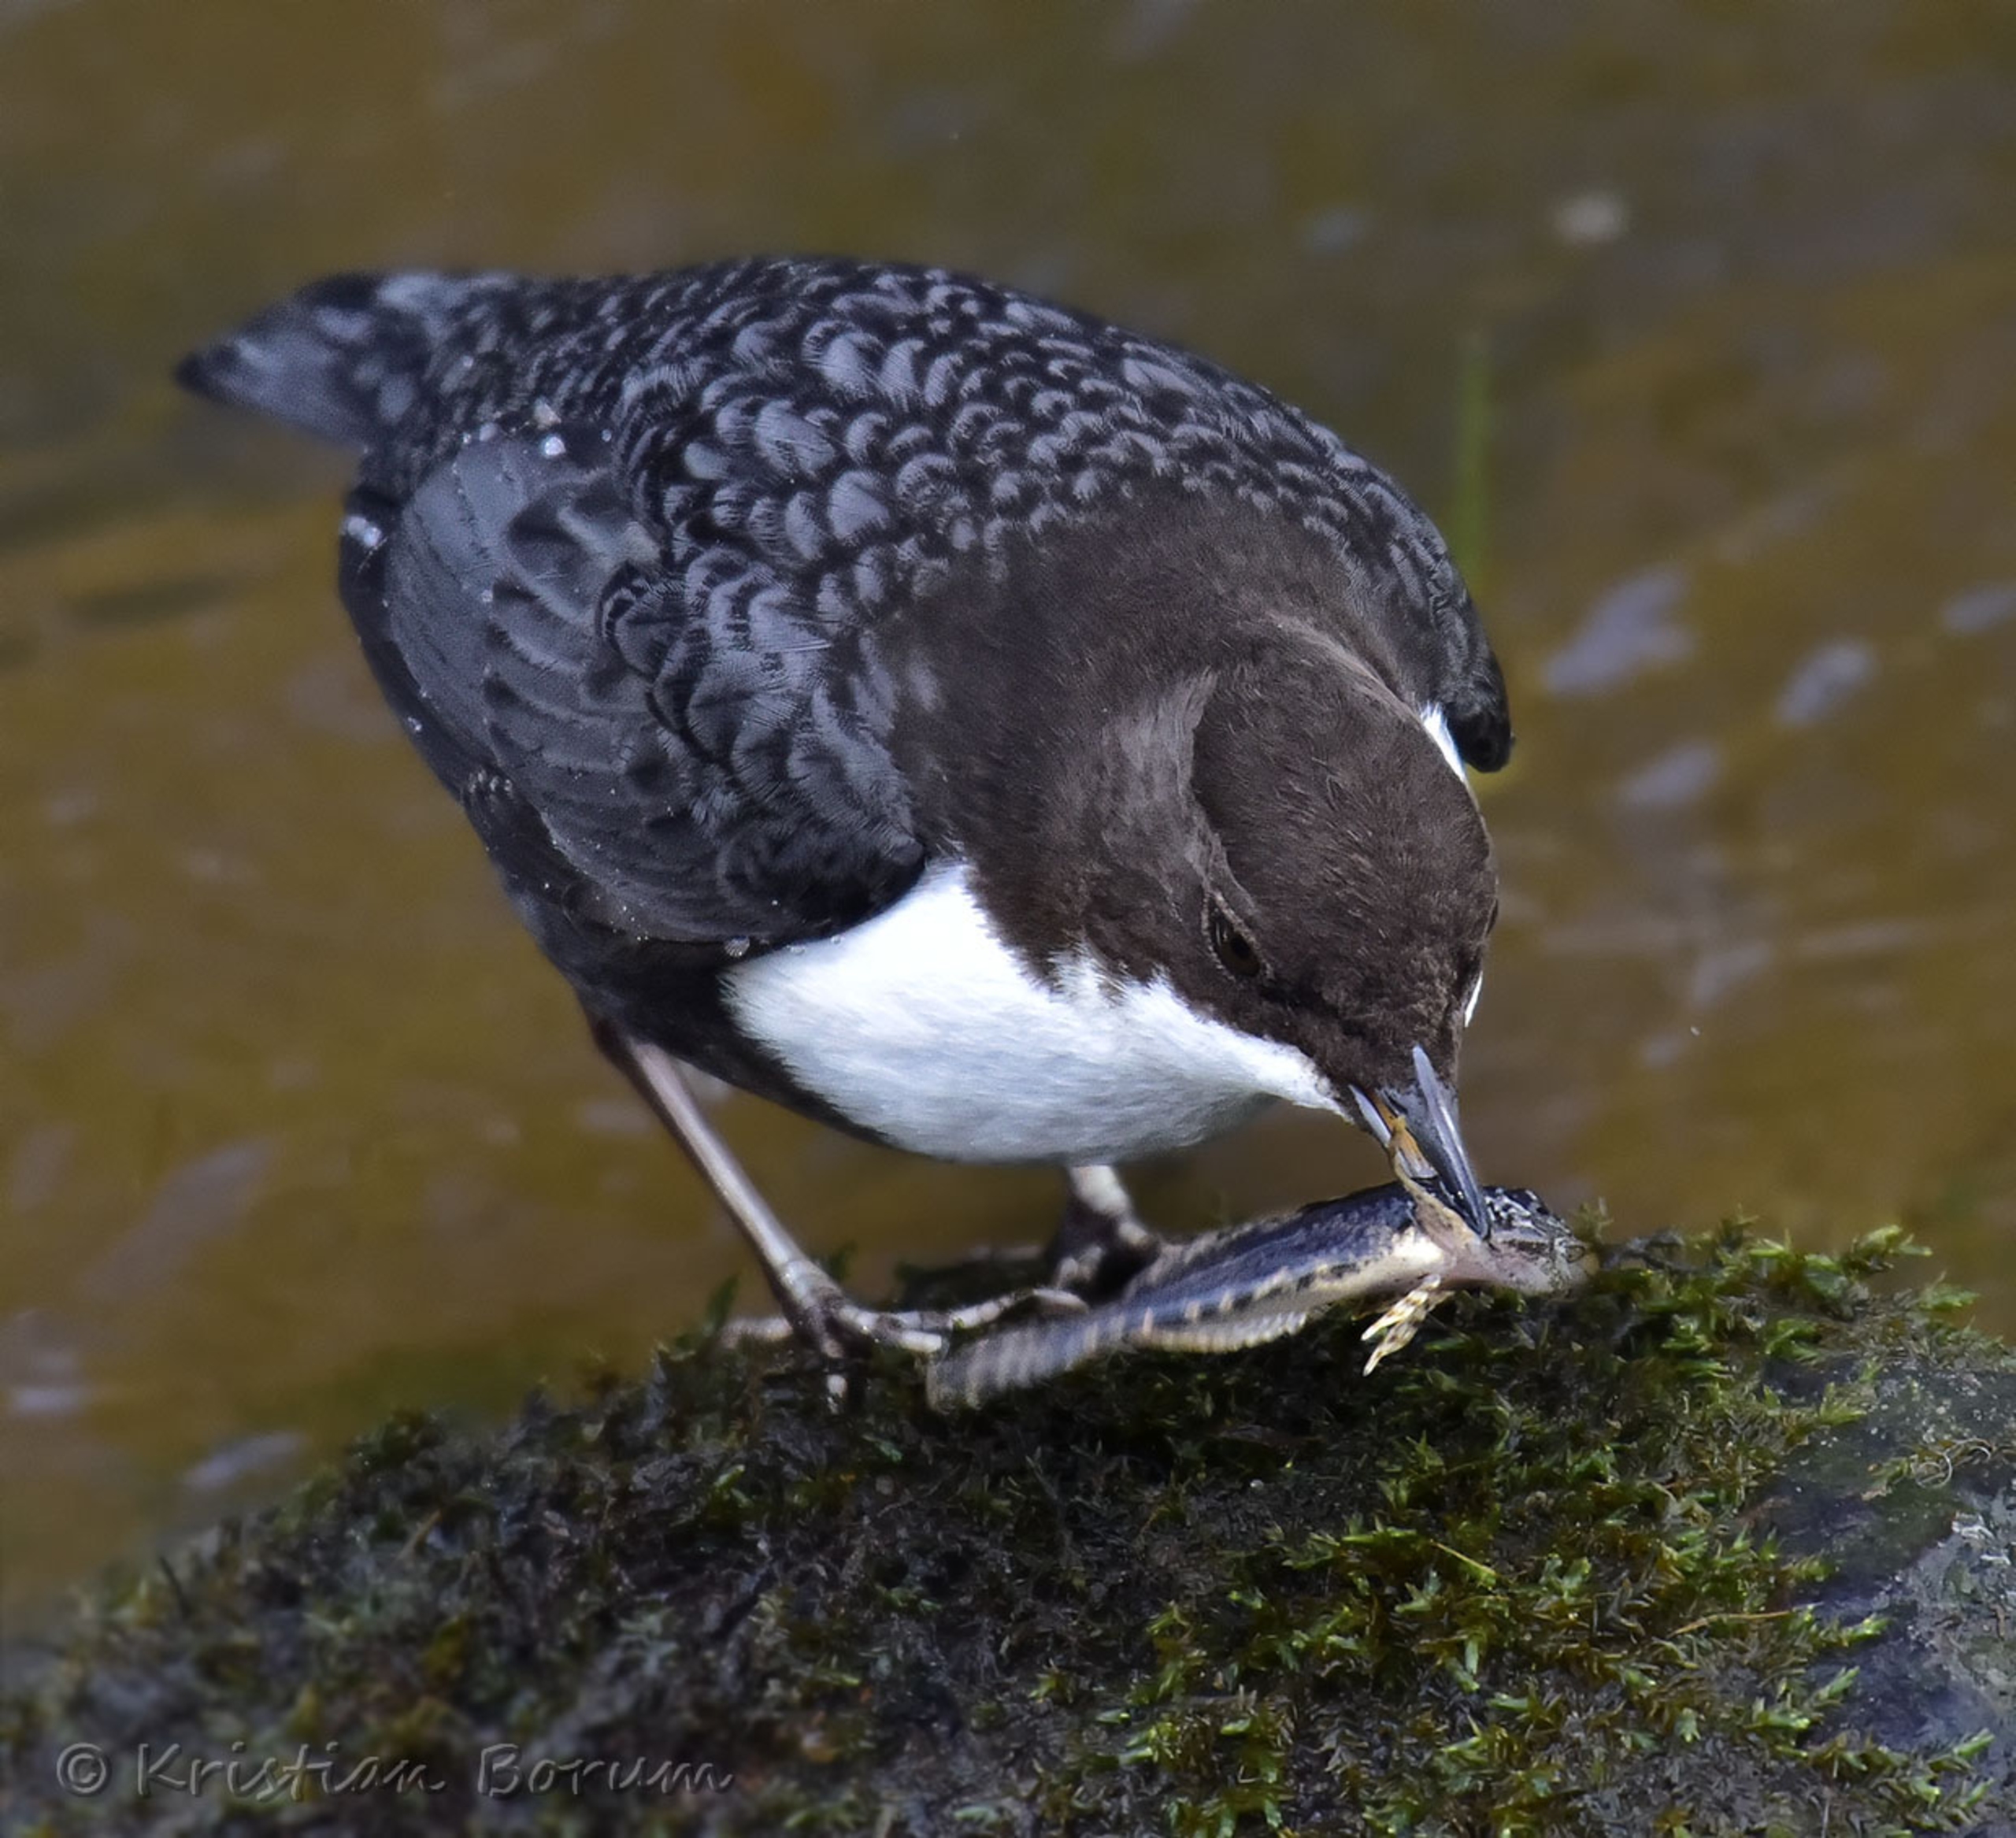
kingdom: Animalia
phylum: Chordata
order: Scorpaeniformes
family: Cottidae
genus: Cottus
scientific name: Cottus poecilopus
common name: Finnestribet ferskvandsulk
